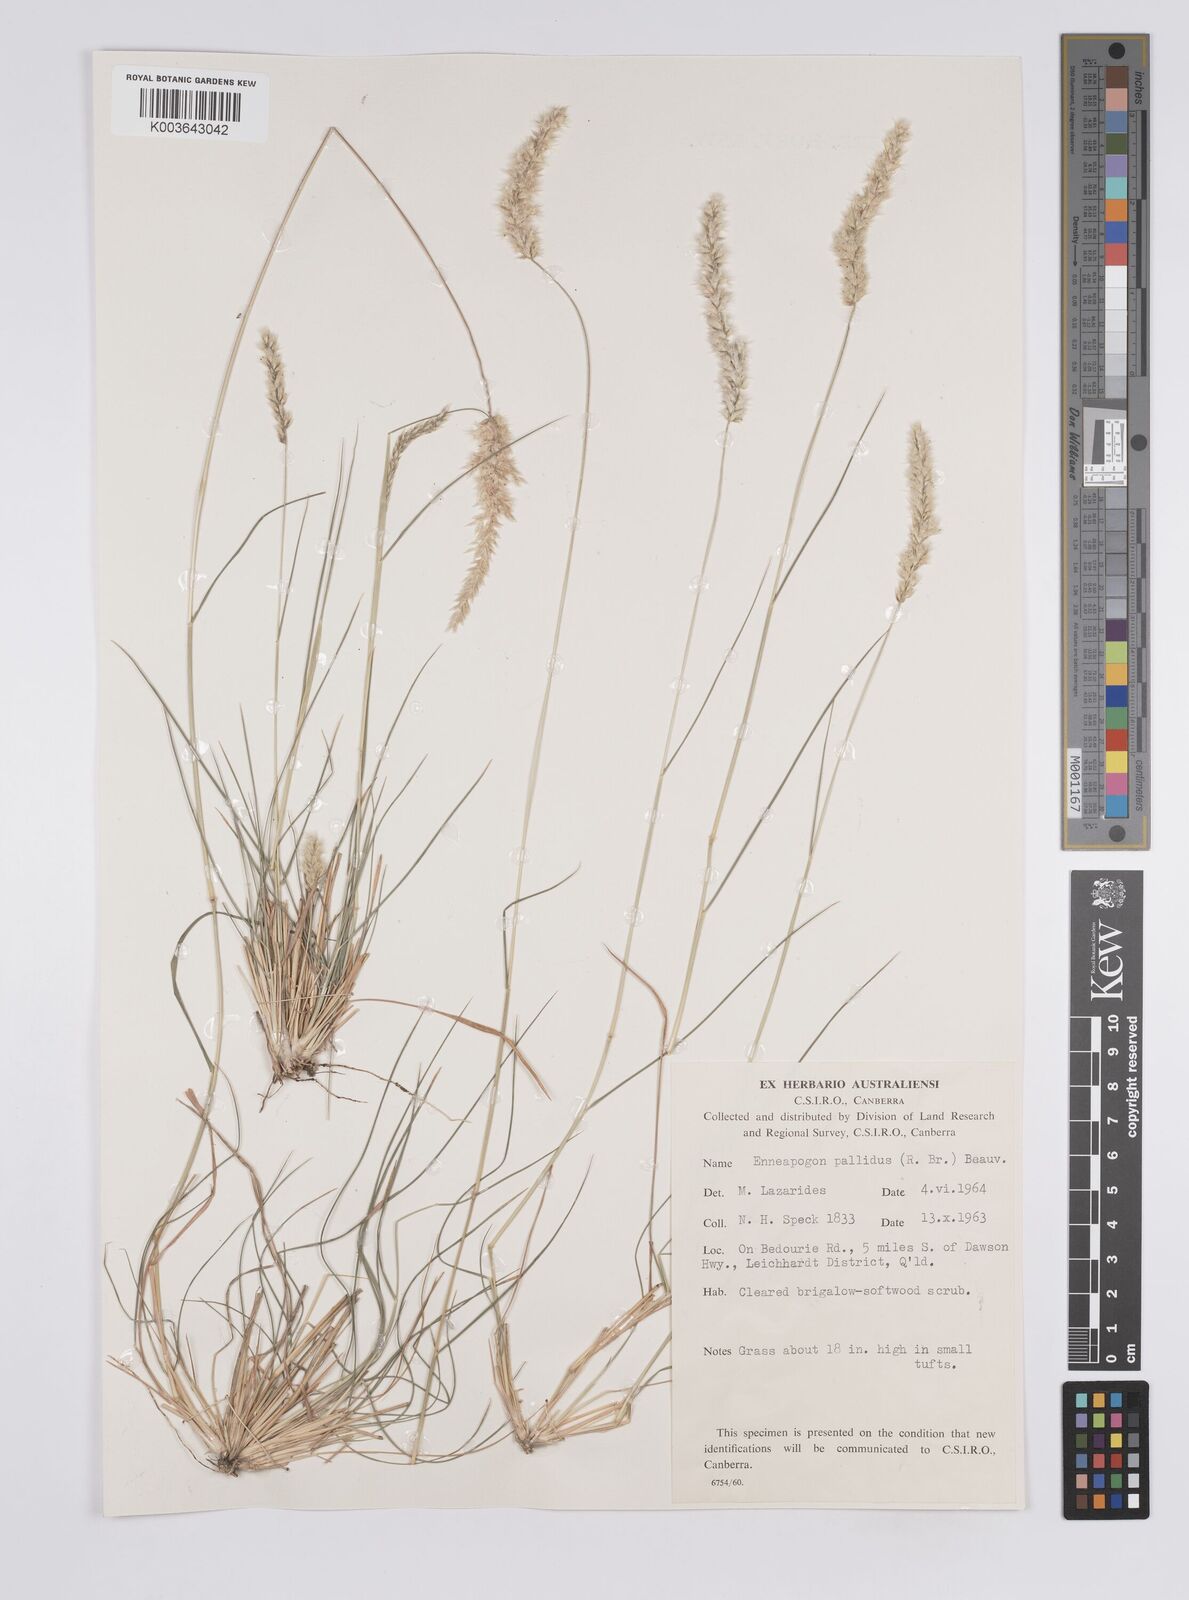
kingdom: Plantae
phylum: Tracheophyta
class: Liliopsida
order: Poales
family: Poaceae
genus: Enneapogon
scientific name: Enneapogon pallidus
